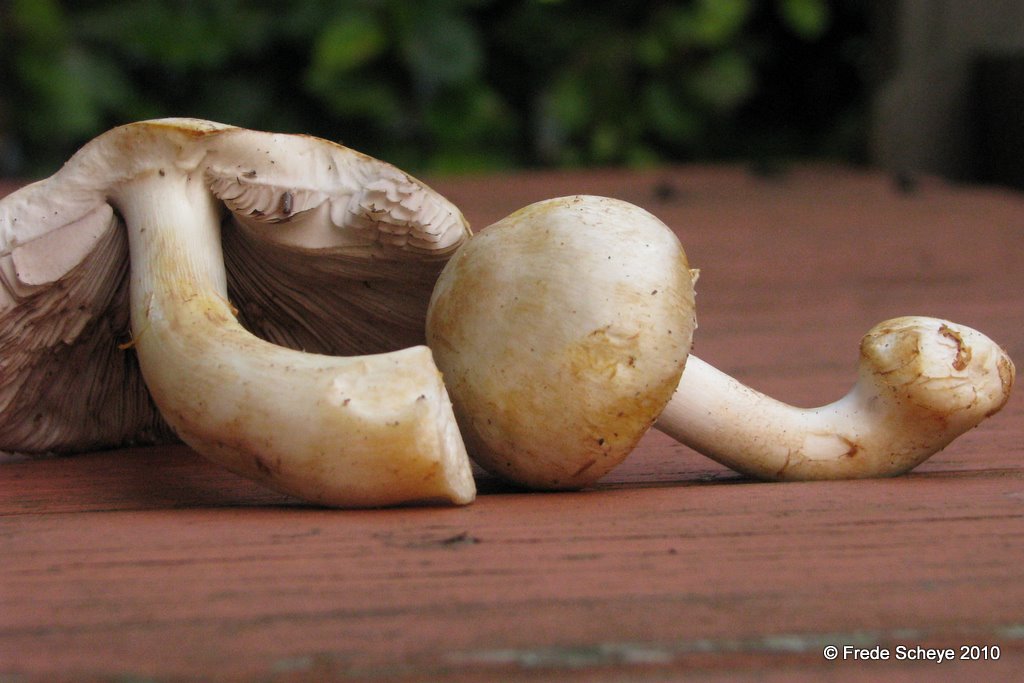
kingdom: Fungi
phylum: Basidiomycota
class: Agaricomycetes
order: Agaricales
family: Agaricaceae
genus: Agaricus
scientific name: Agaricus xanthodermus
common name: karbol-champignon
